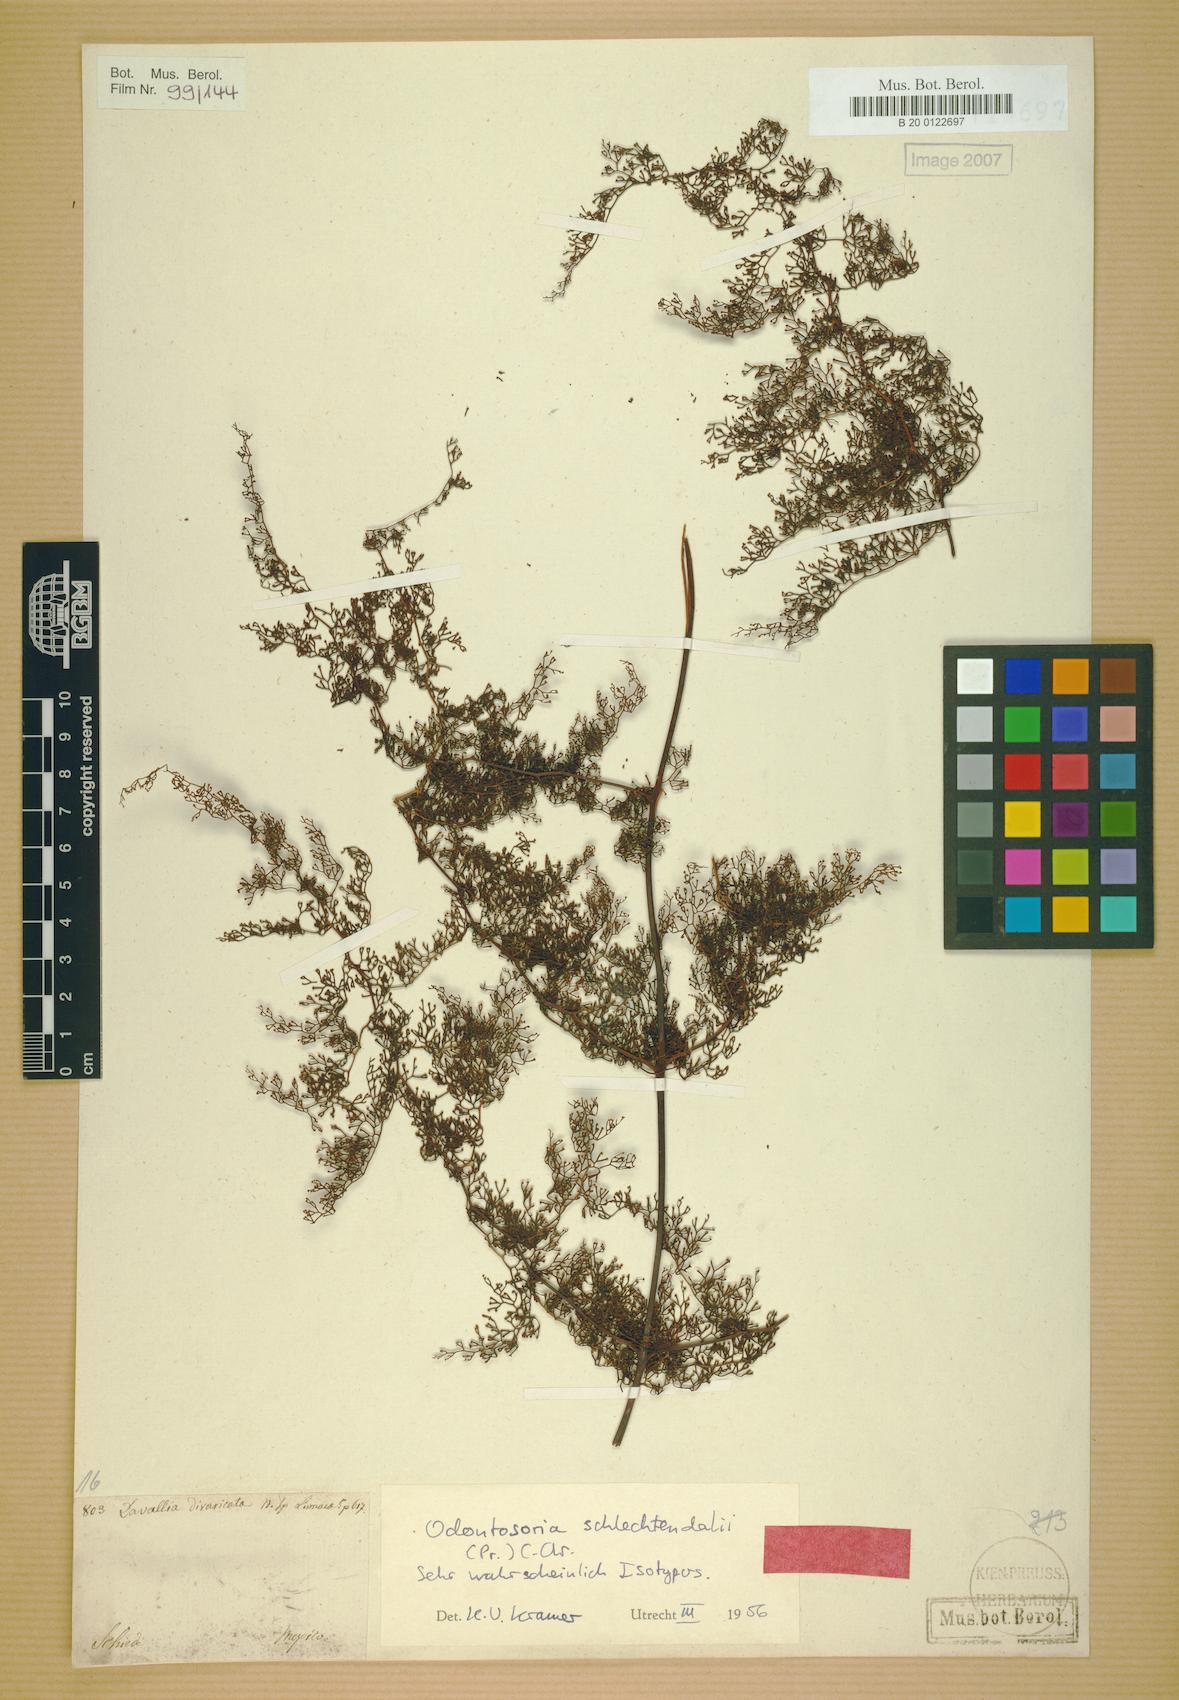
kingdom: Plantae
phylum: Tracheophyta
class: Polypodiopsida
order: Polypodiales
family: Lindsaeaceae
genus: Odontosoria
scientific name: Odontosoria schlechtendalii
